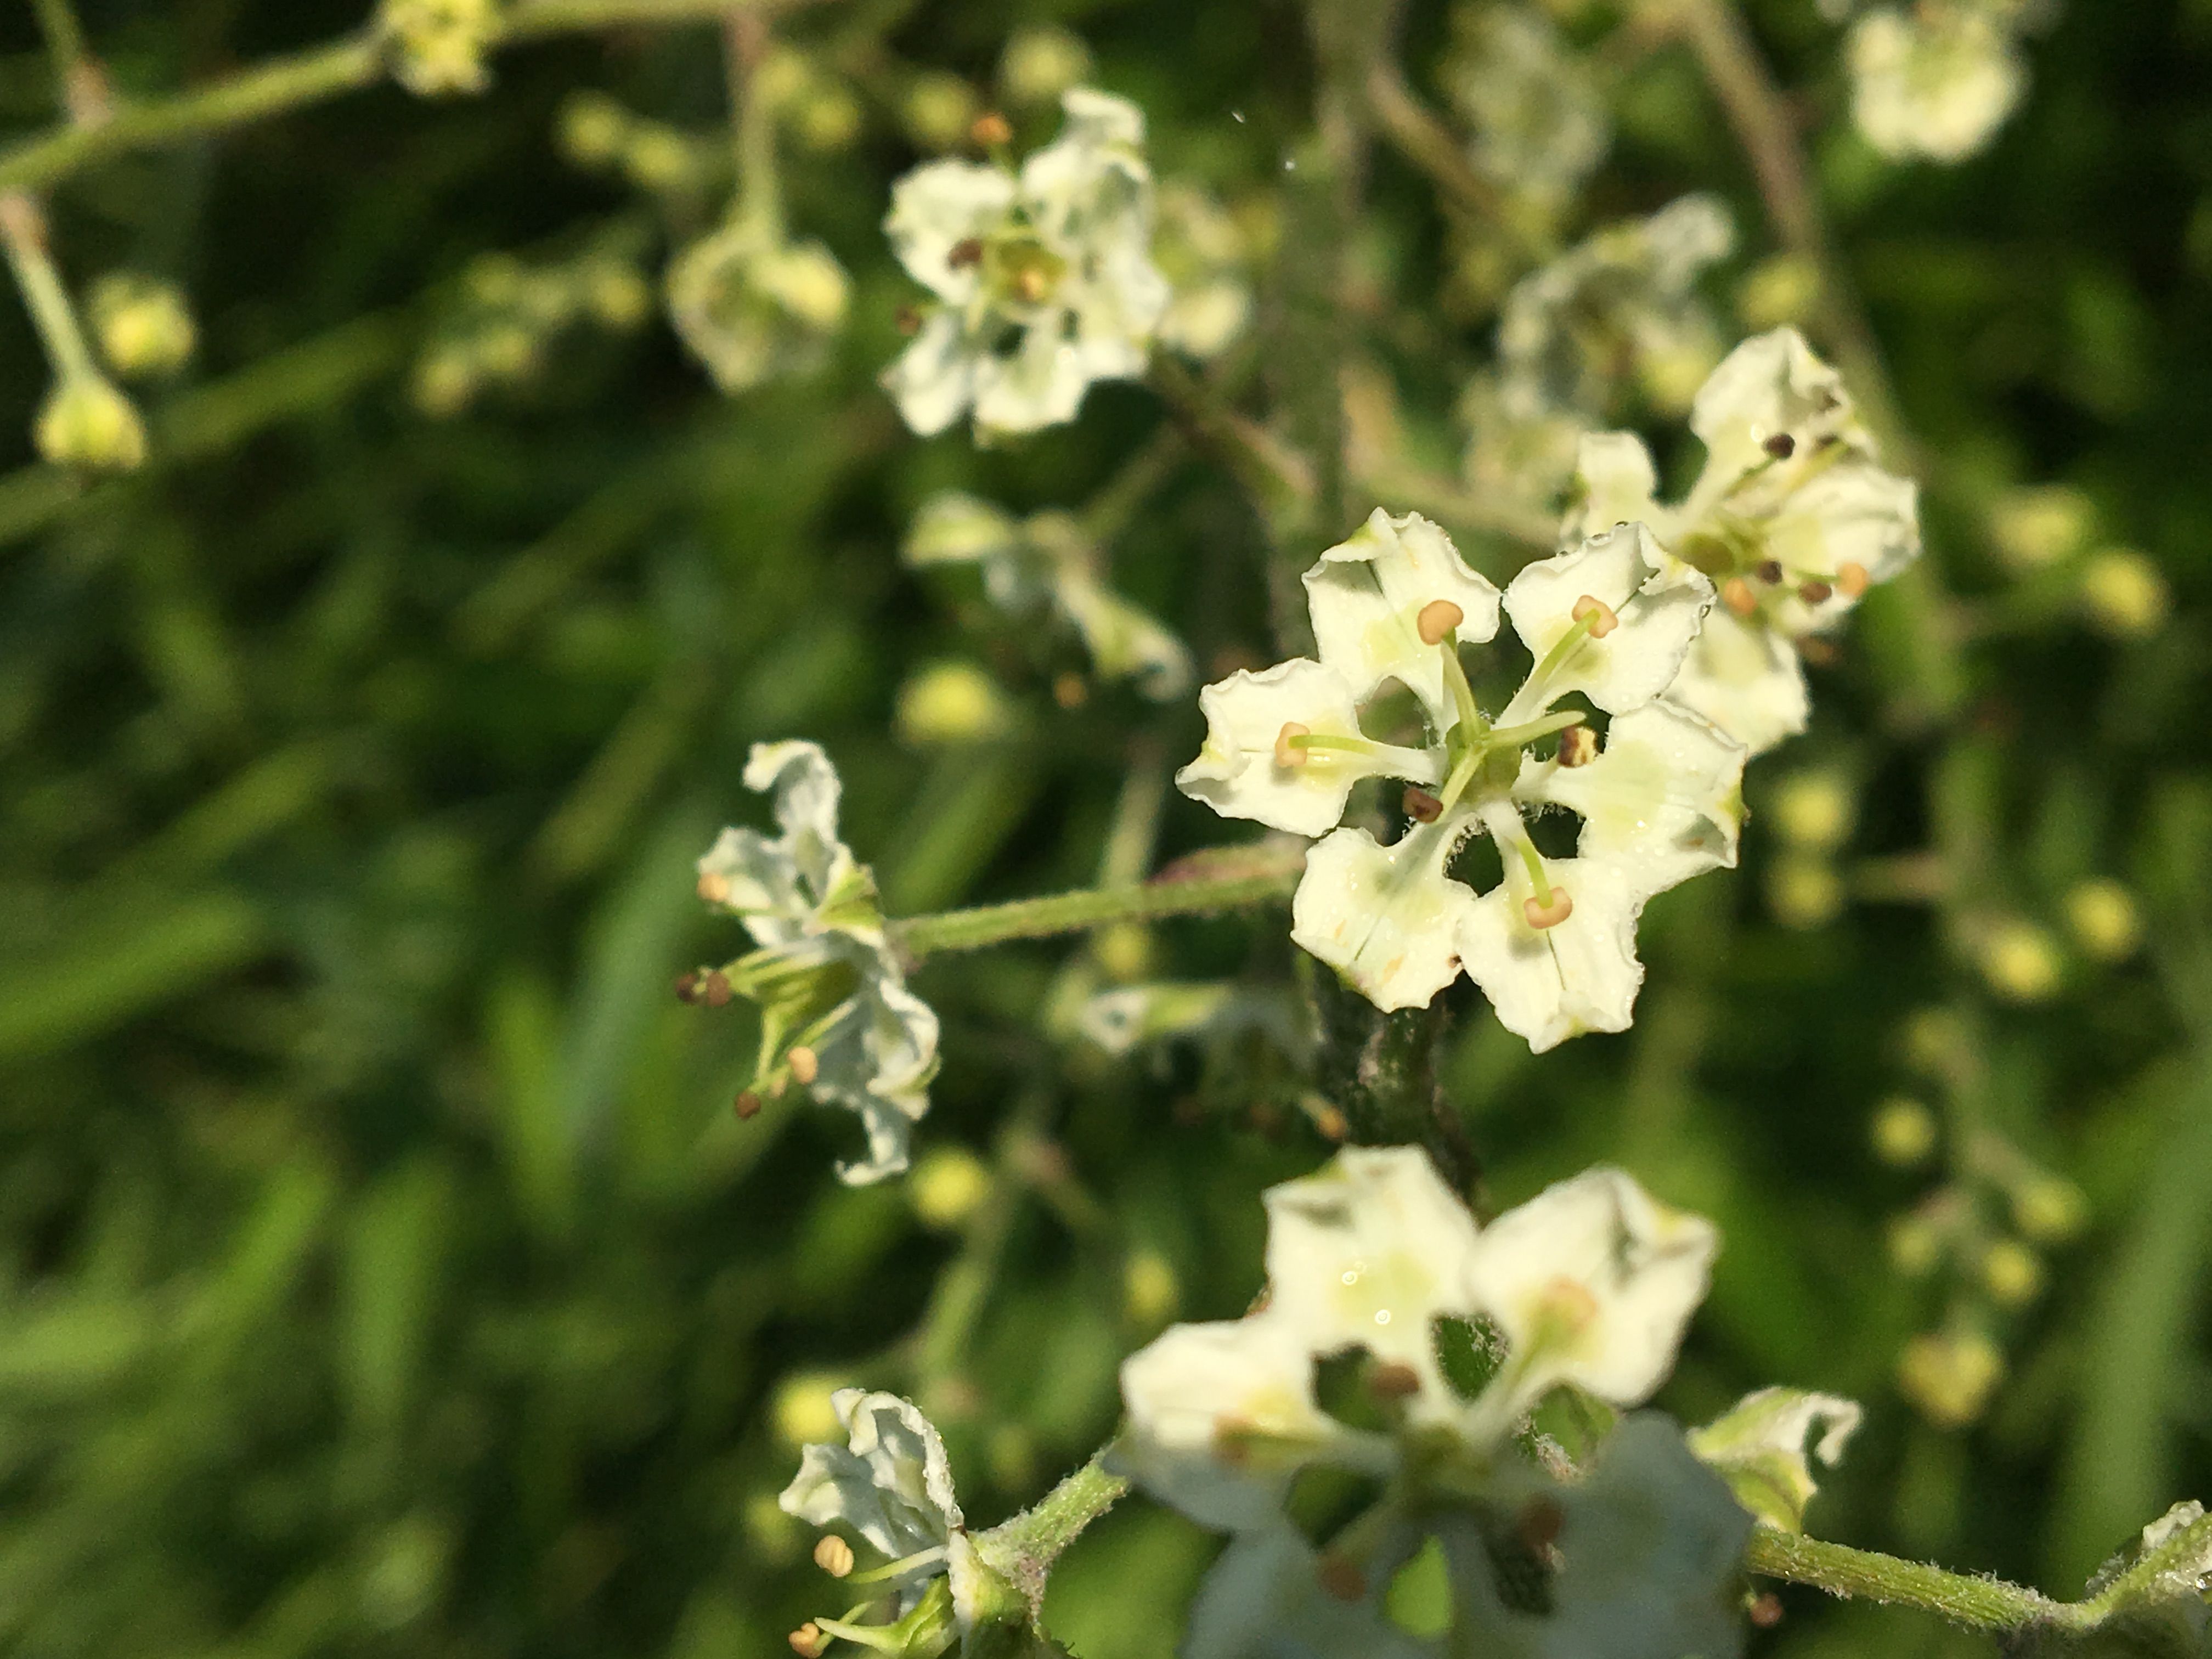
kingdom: Plantae
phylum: Tracheophyta
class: Liliopsida
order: Liliales
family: Melanthiaceae
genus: Melanthium
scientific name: Melanthium hybridum
